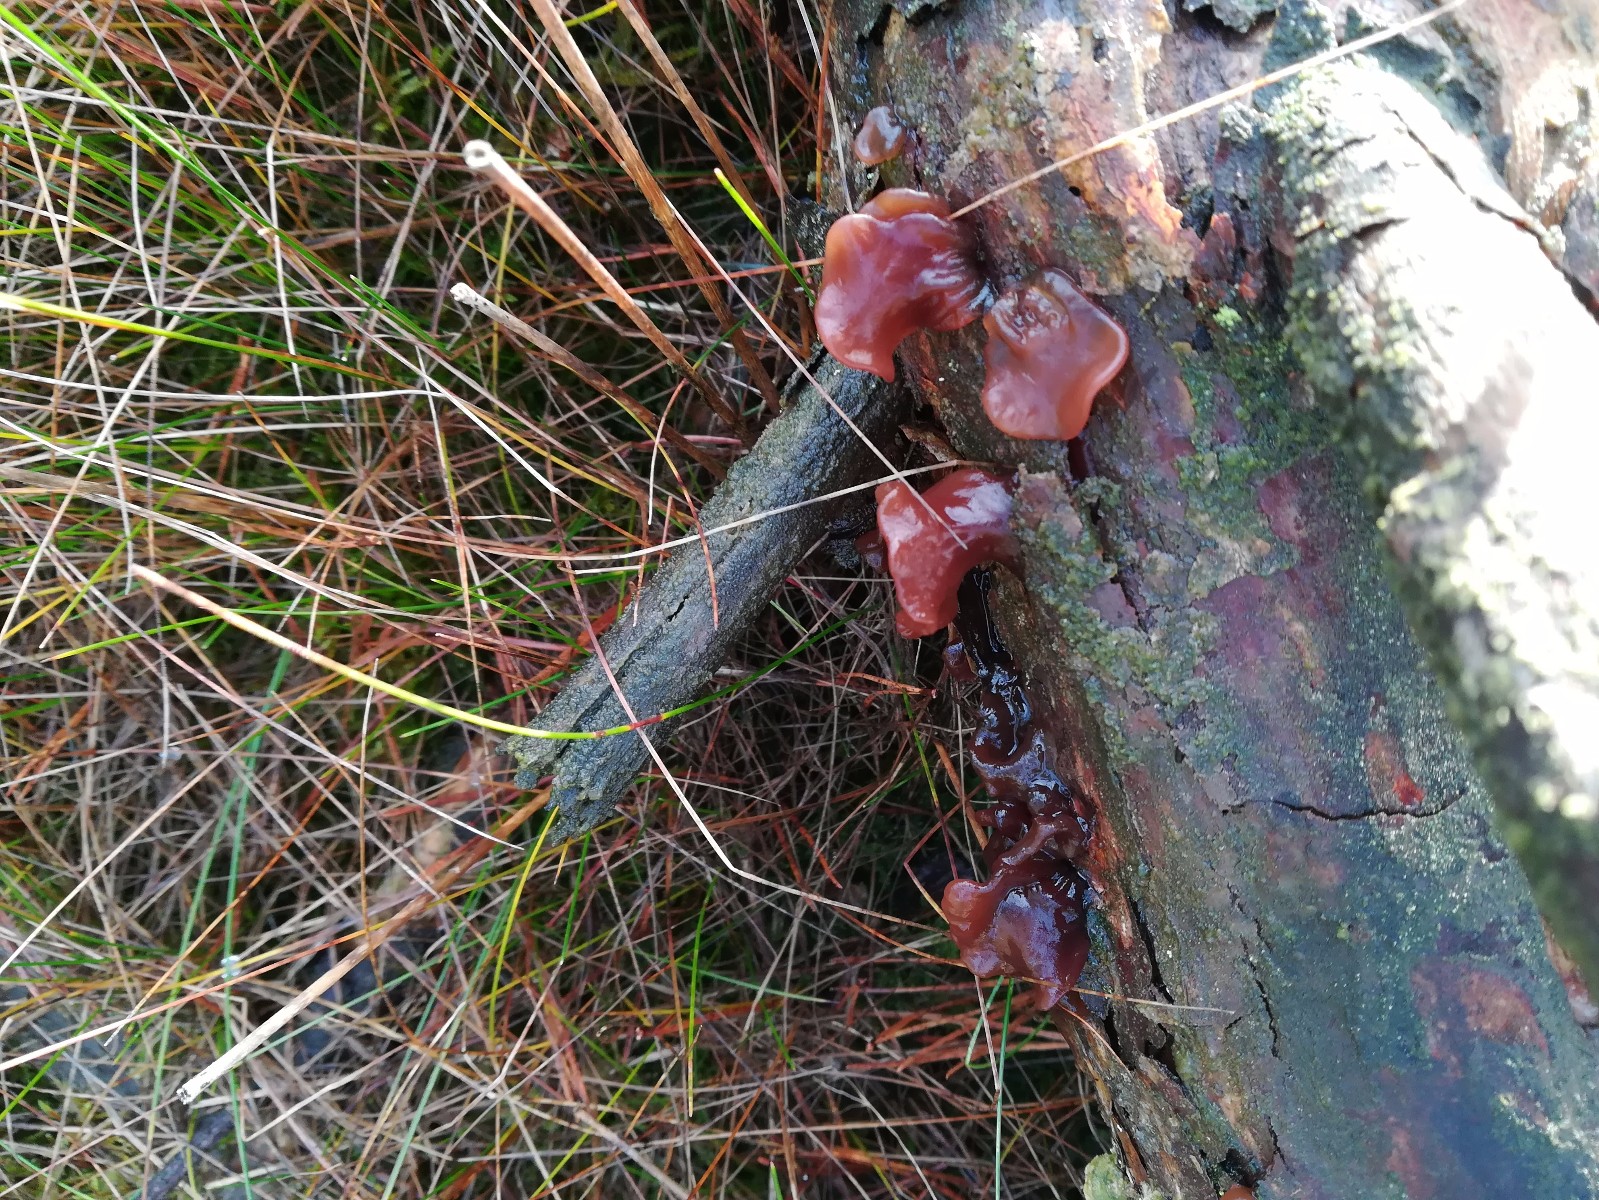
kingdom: Fungi
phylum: Basidiomycota
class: Tremellomycetes
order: Tremellales
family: Tremellaceae
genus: Phaeotremella
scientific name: Phaeotremella foliacea
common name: brun bævresvamp
